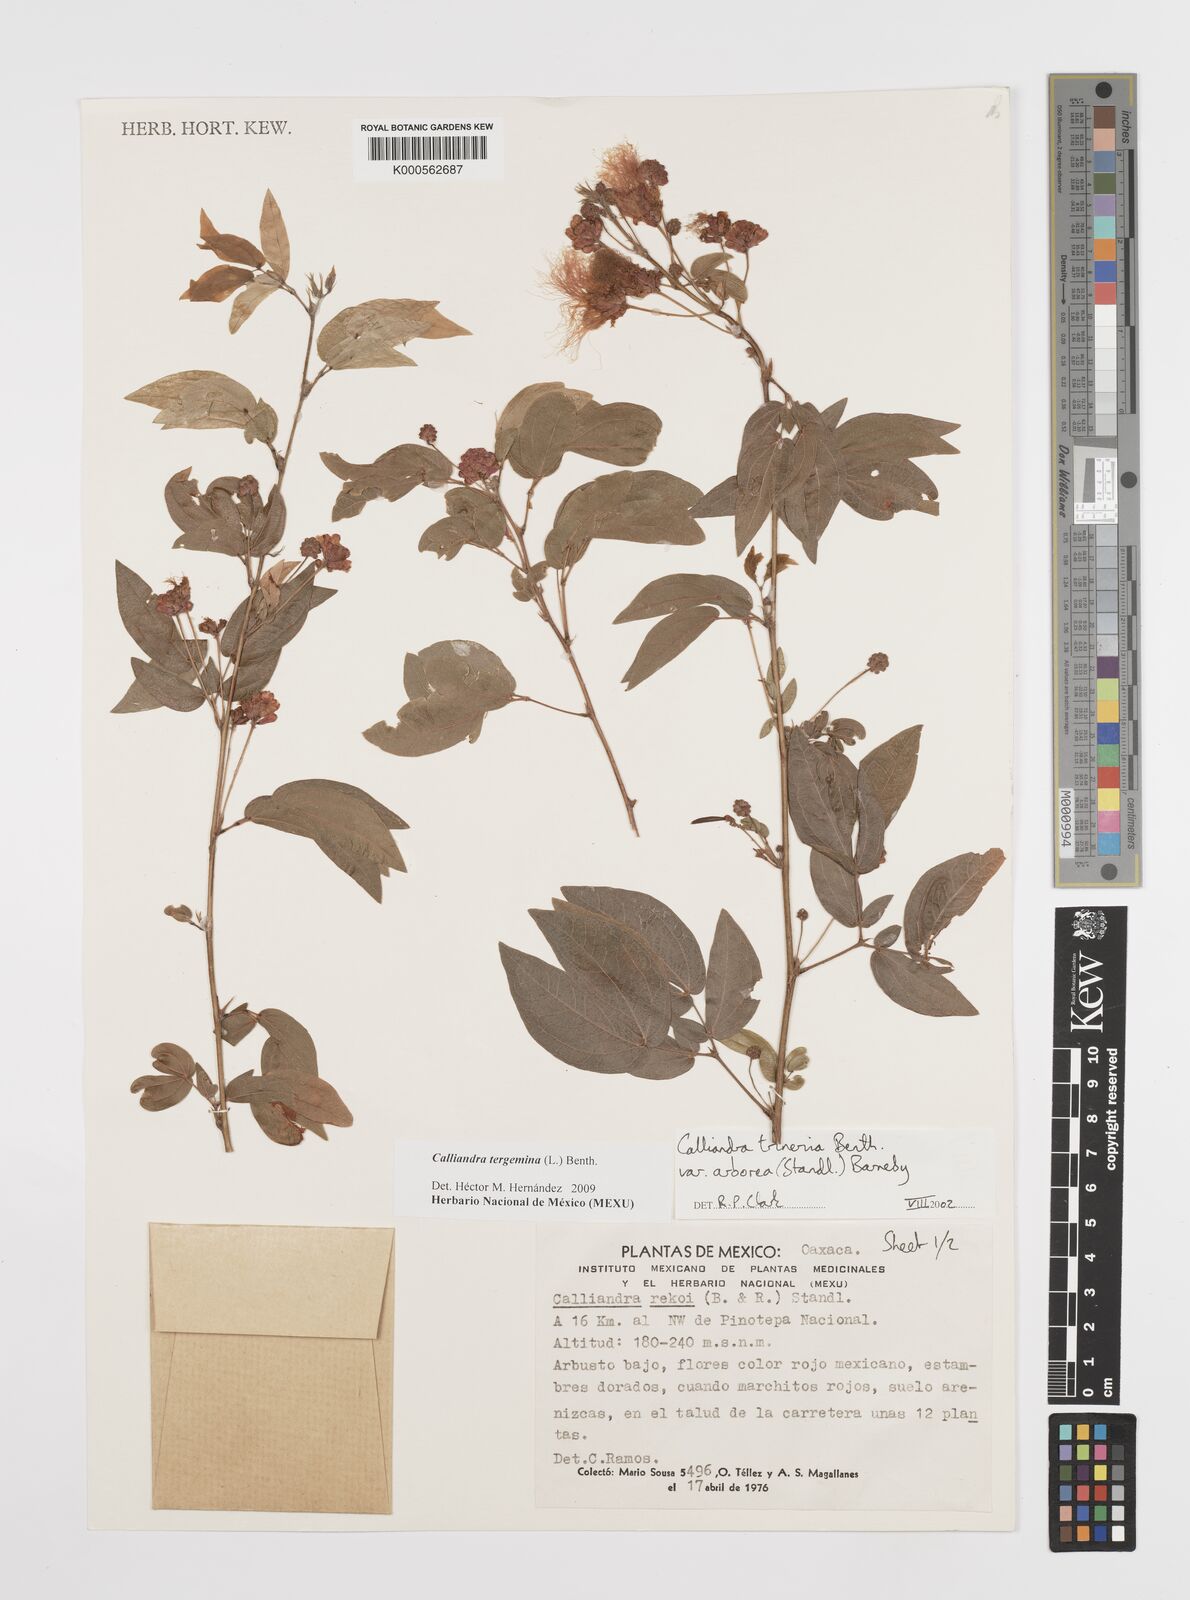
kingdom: Plantae
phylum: Tracheophyta
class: Magnoliopsida
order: Fabales
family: Fabaceae
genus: Calliandra
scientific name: Calliandra tergemina
